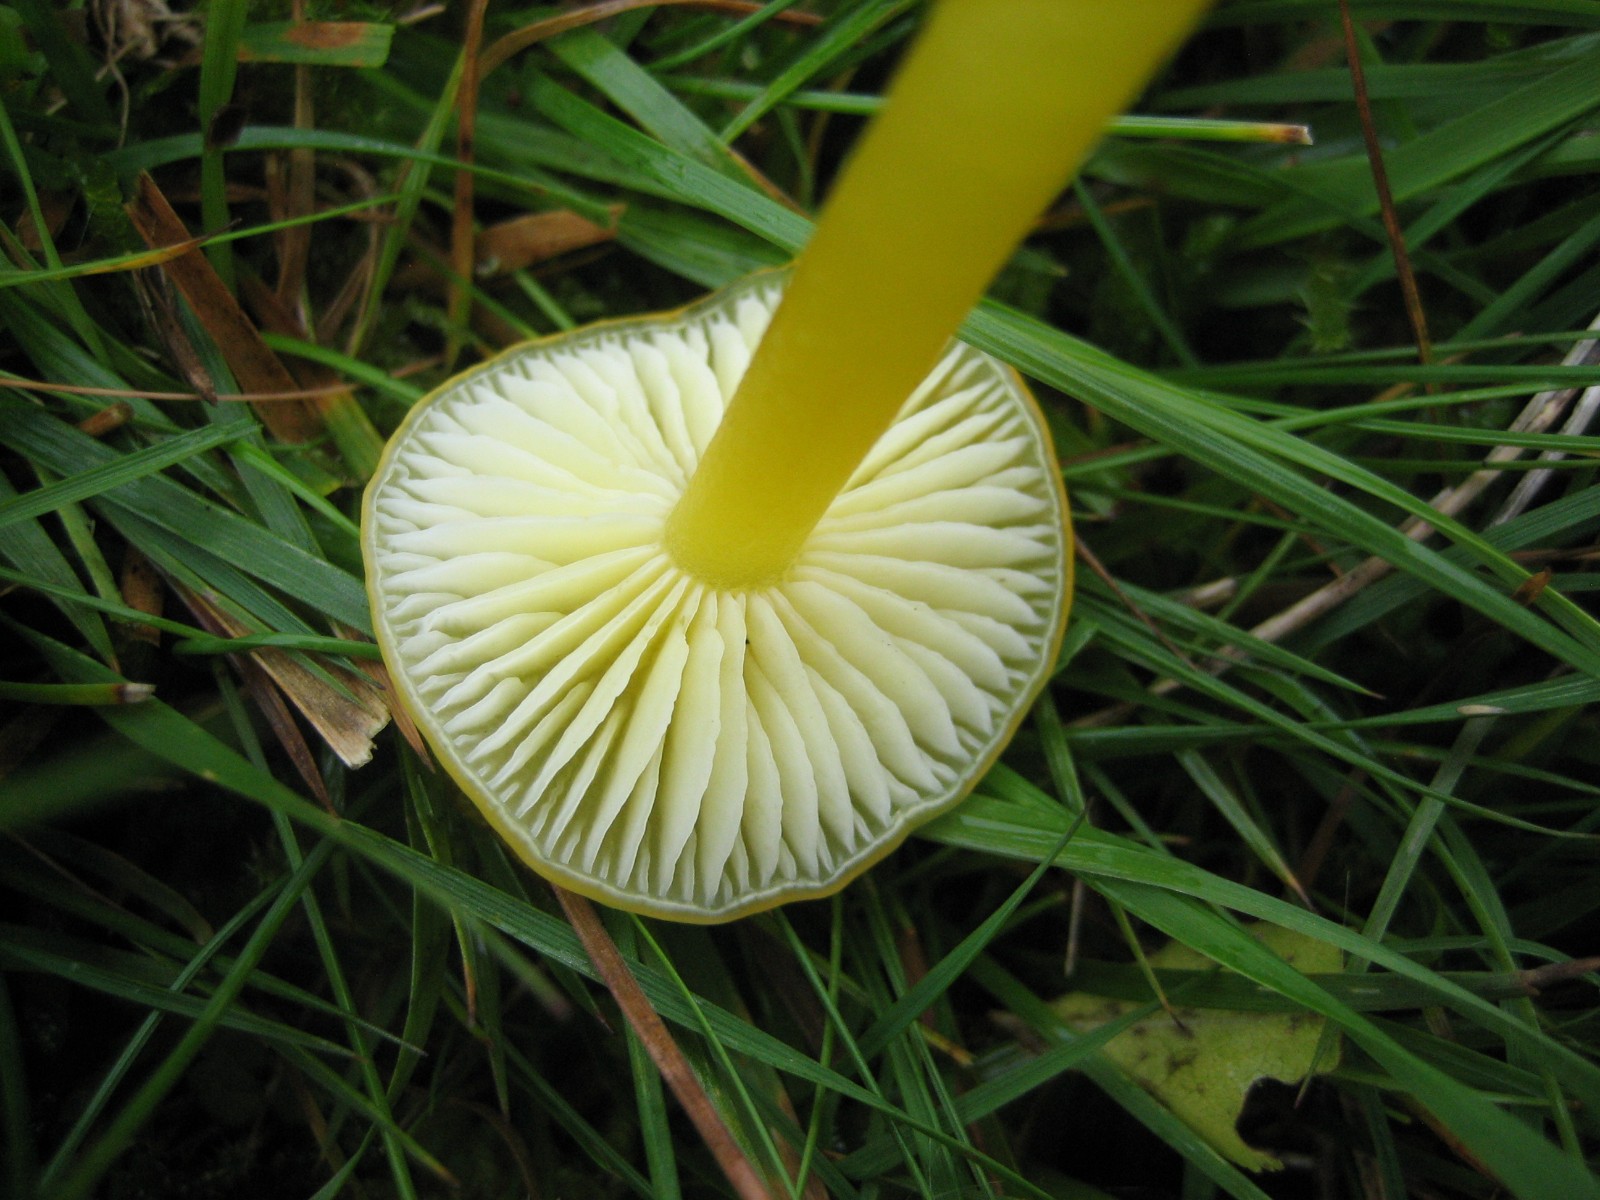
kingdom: Fungi
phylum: Basidiomycota
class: Agaricomycetes
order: Agaricales
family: Hygrophoraceae
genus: Hygrocybe
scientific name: Hygrocybe chlorophana
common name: gul vokshat
